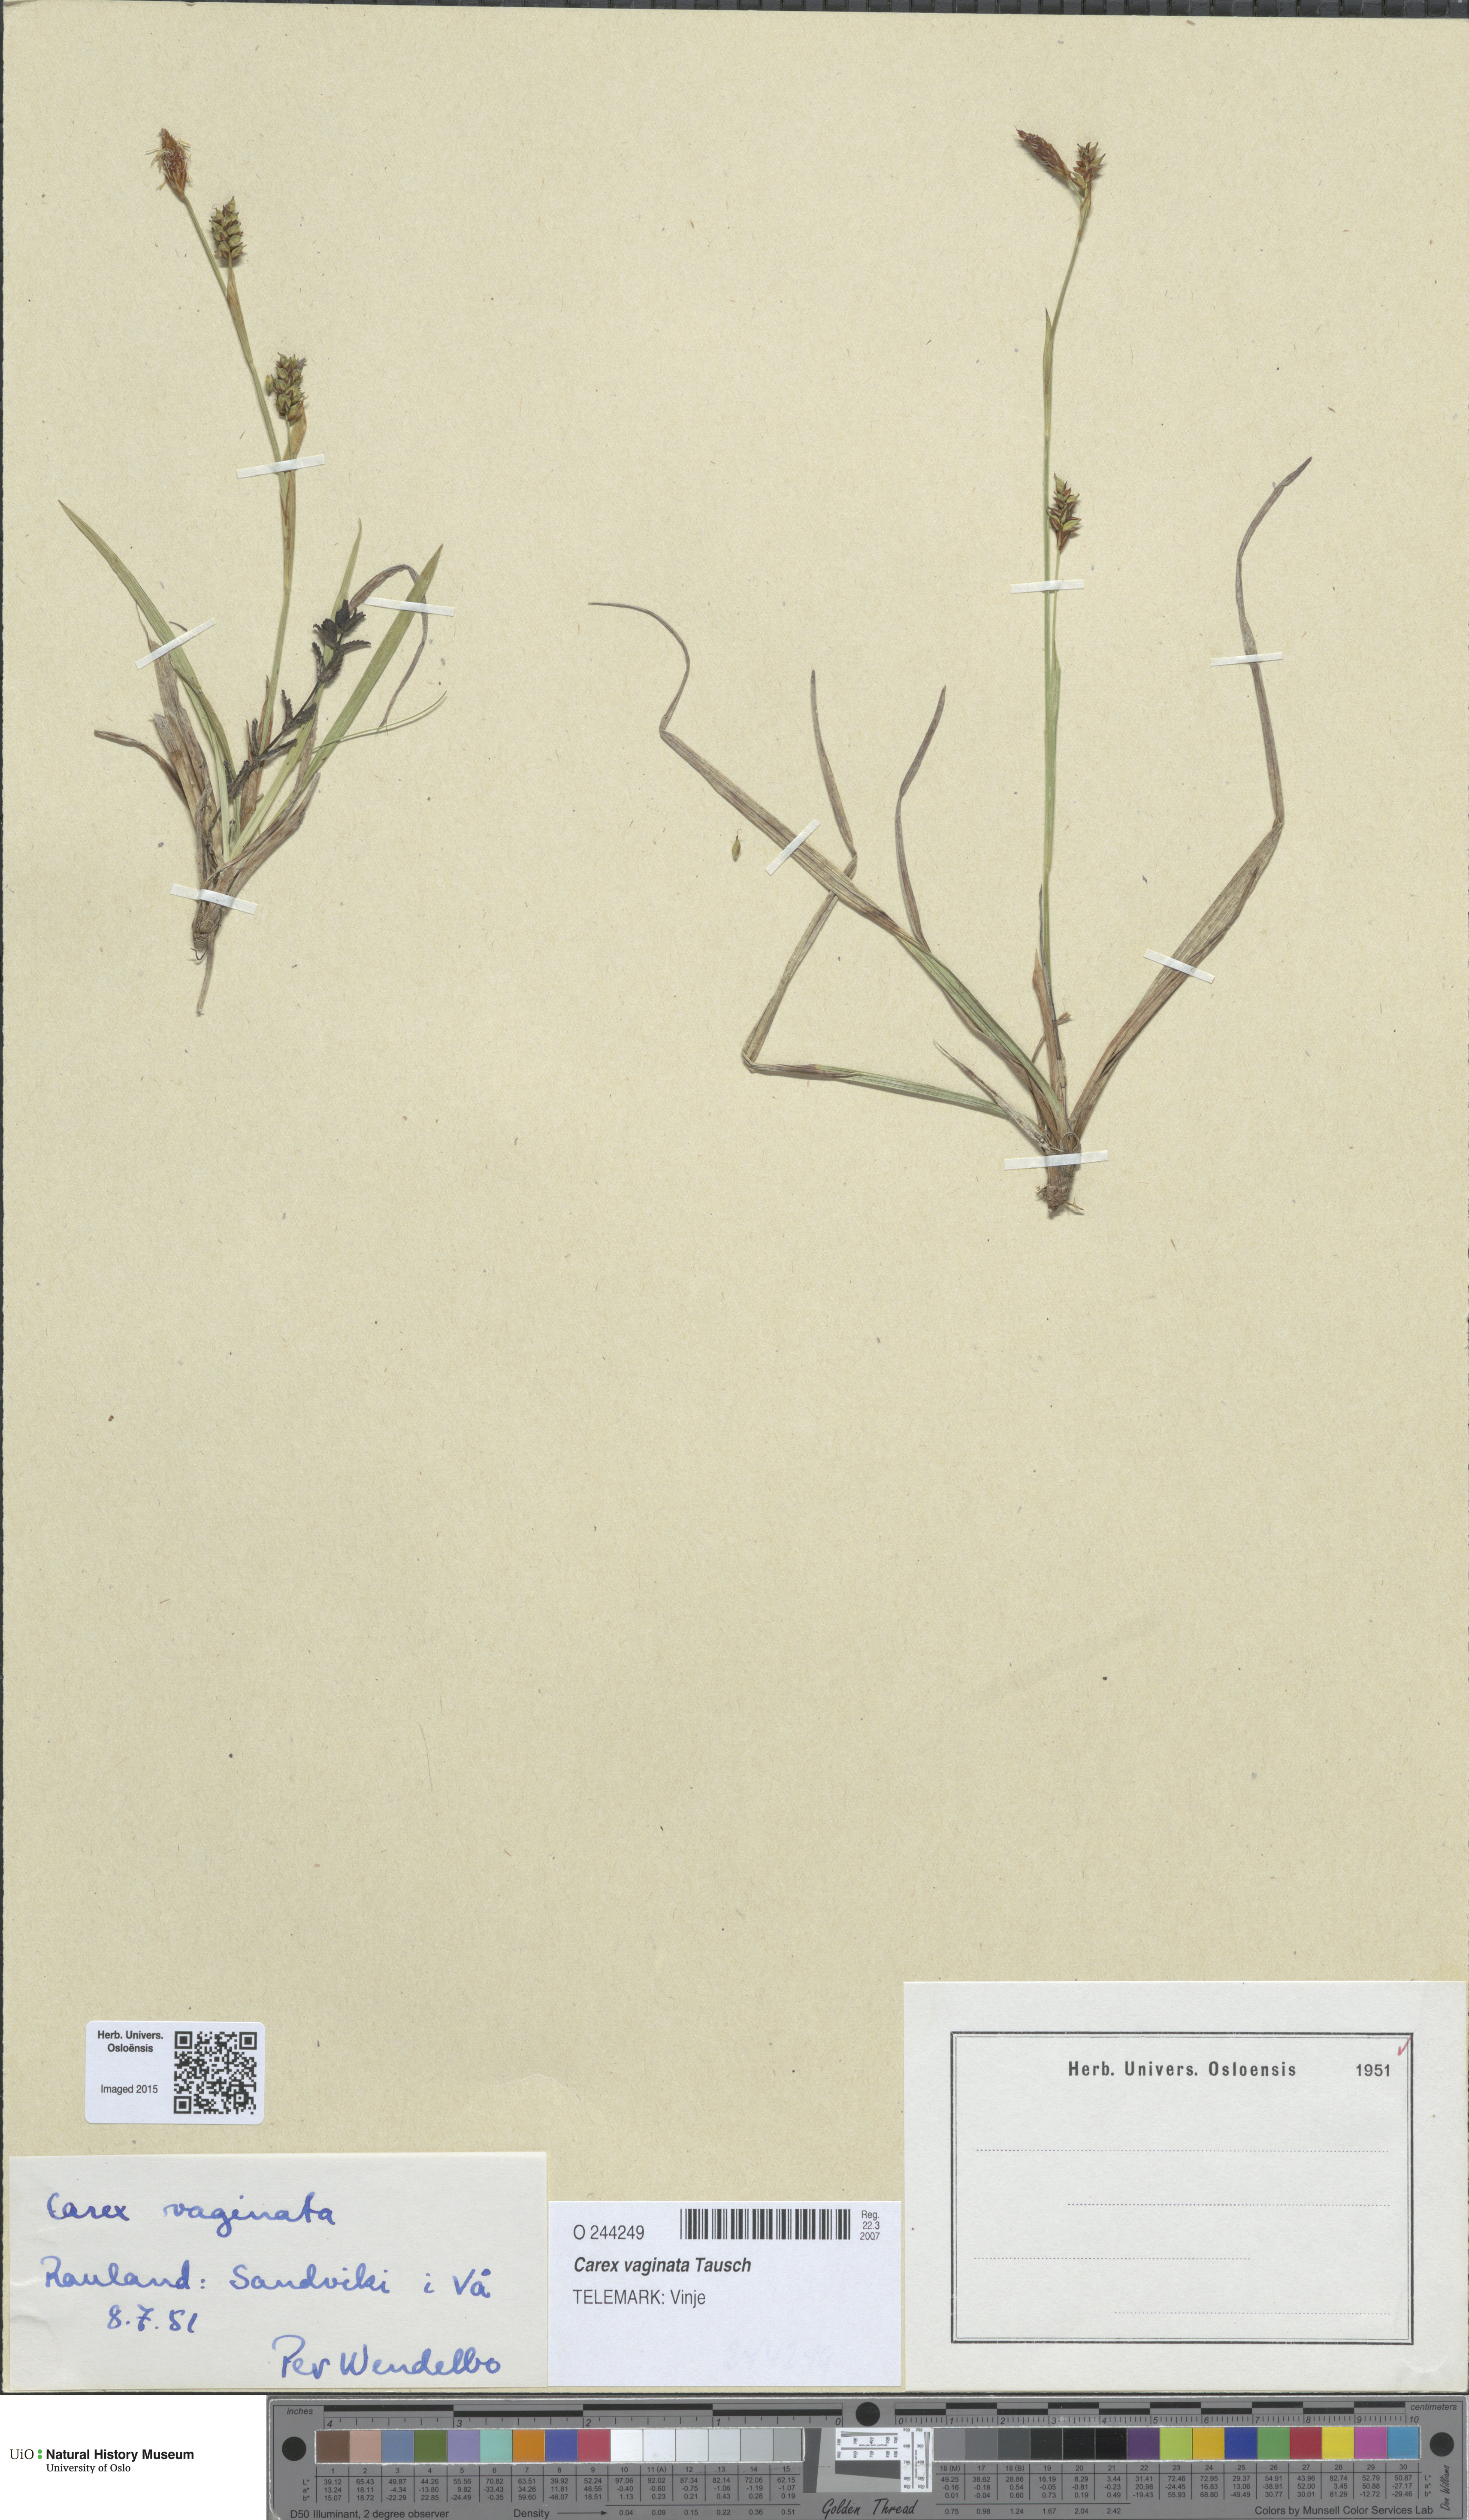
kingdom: Plantae
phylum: Tracheophyta
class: Liliopsida
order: Poales
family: Cyperaceae
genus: Carex
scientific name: Carex vaginata
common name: Sheathed sedge
